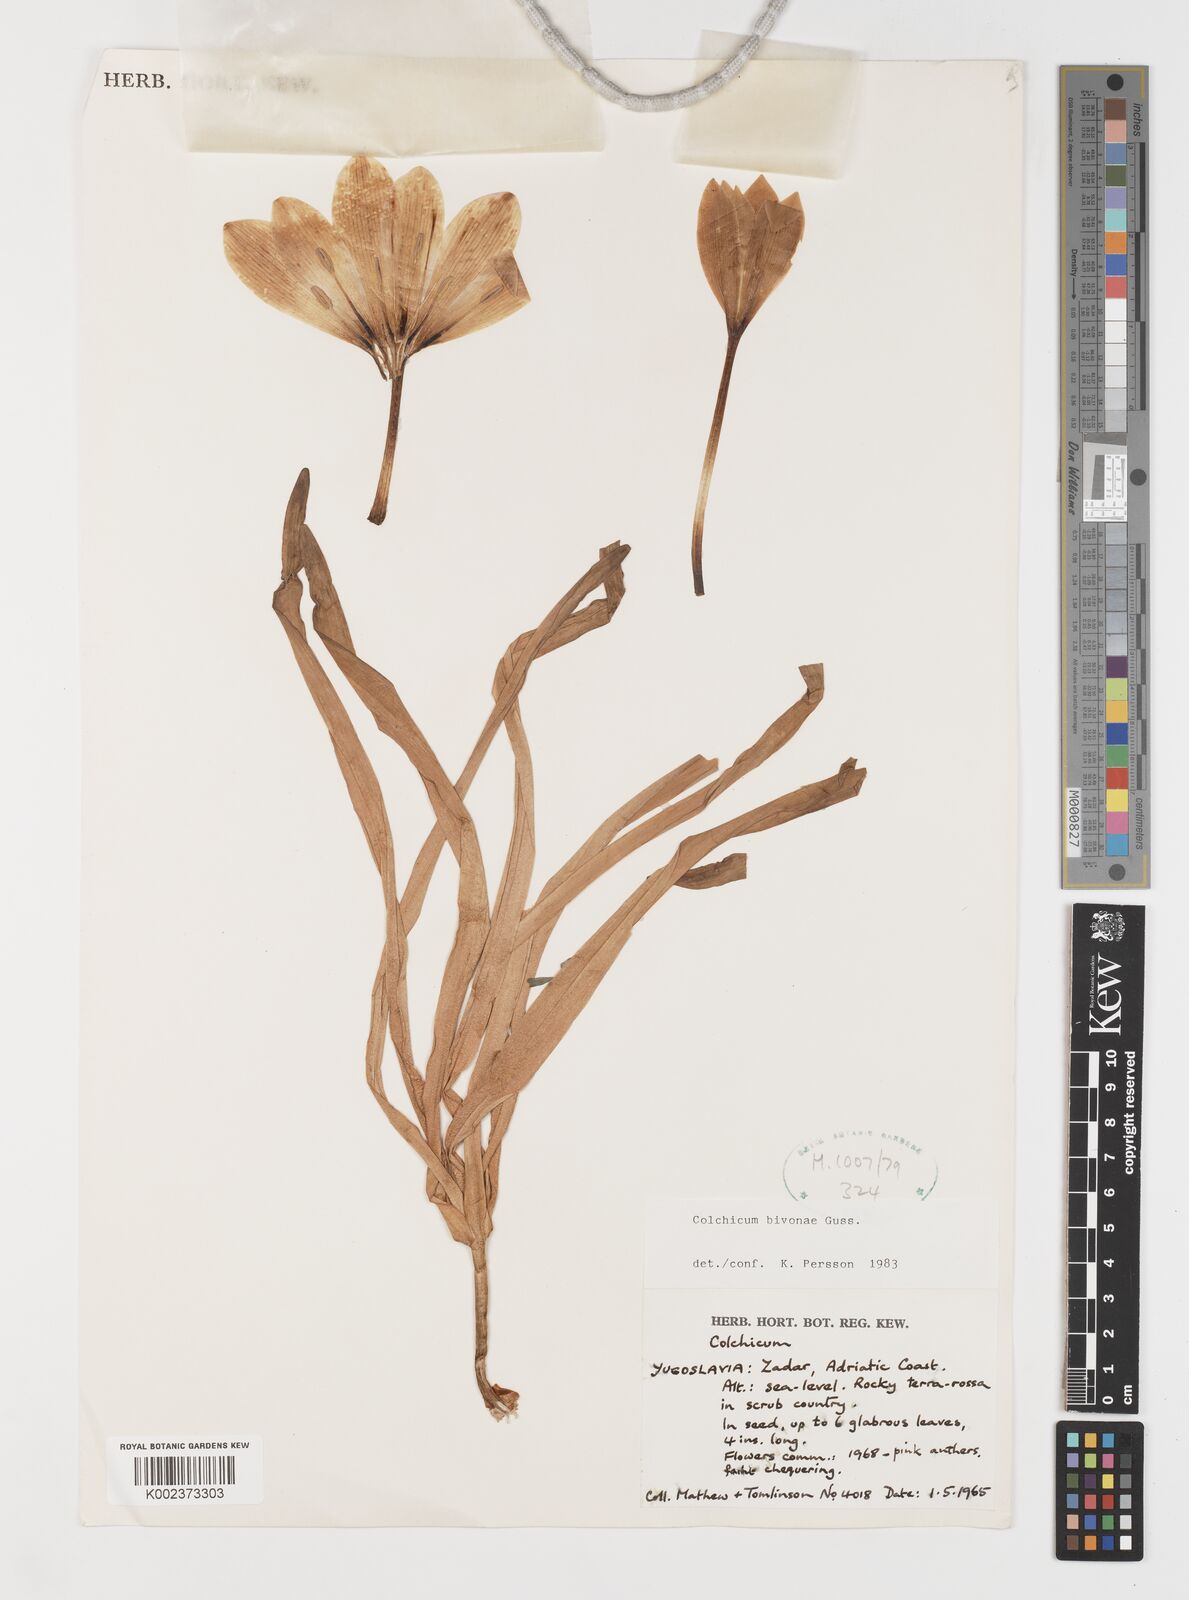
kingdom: Plantae
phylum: Tracheophyta
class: Liliopsida
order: Liliales
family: Colchicaceae
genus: Colchicum
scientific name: Colchicum bivonae
